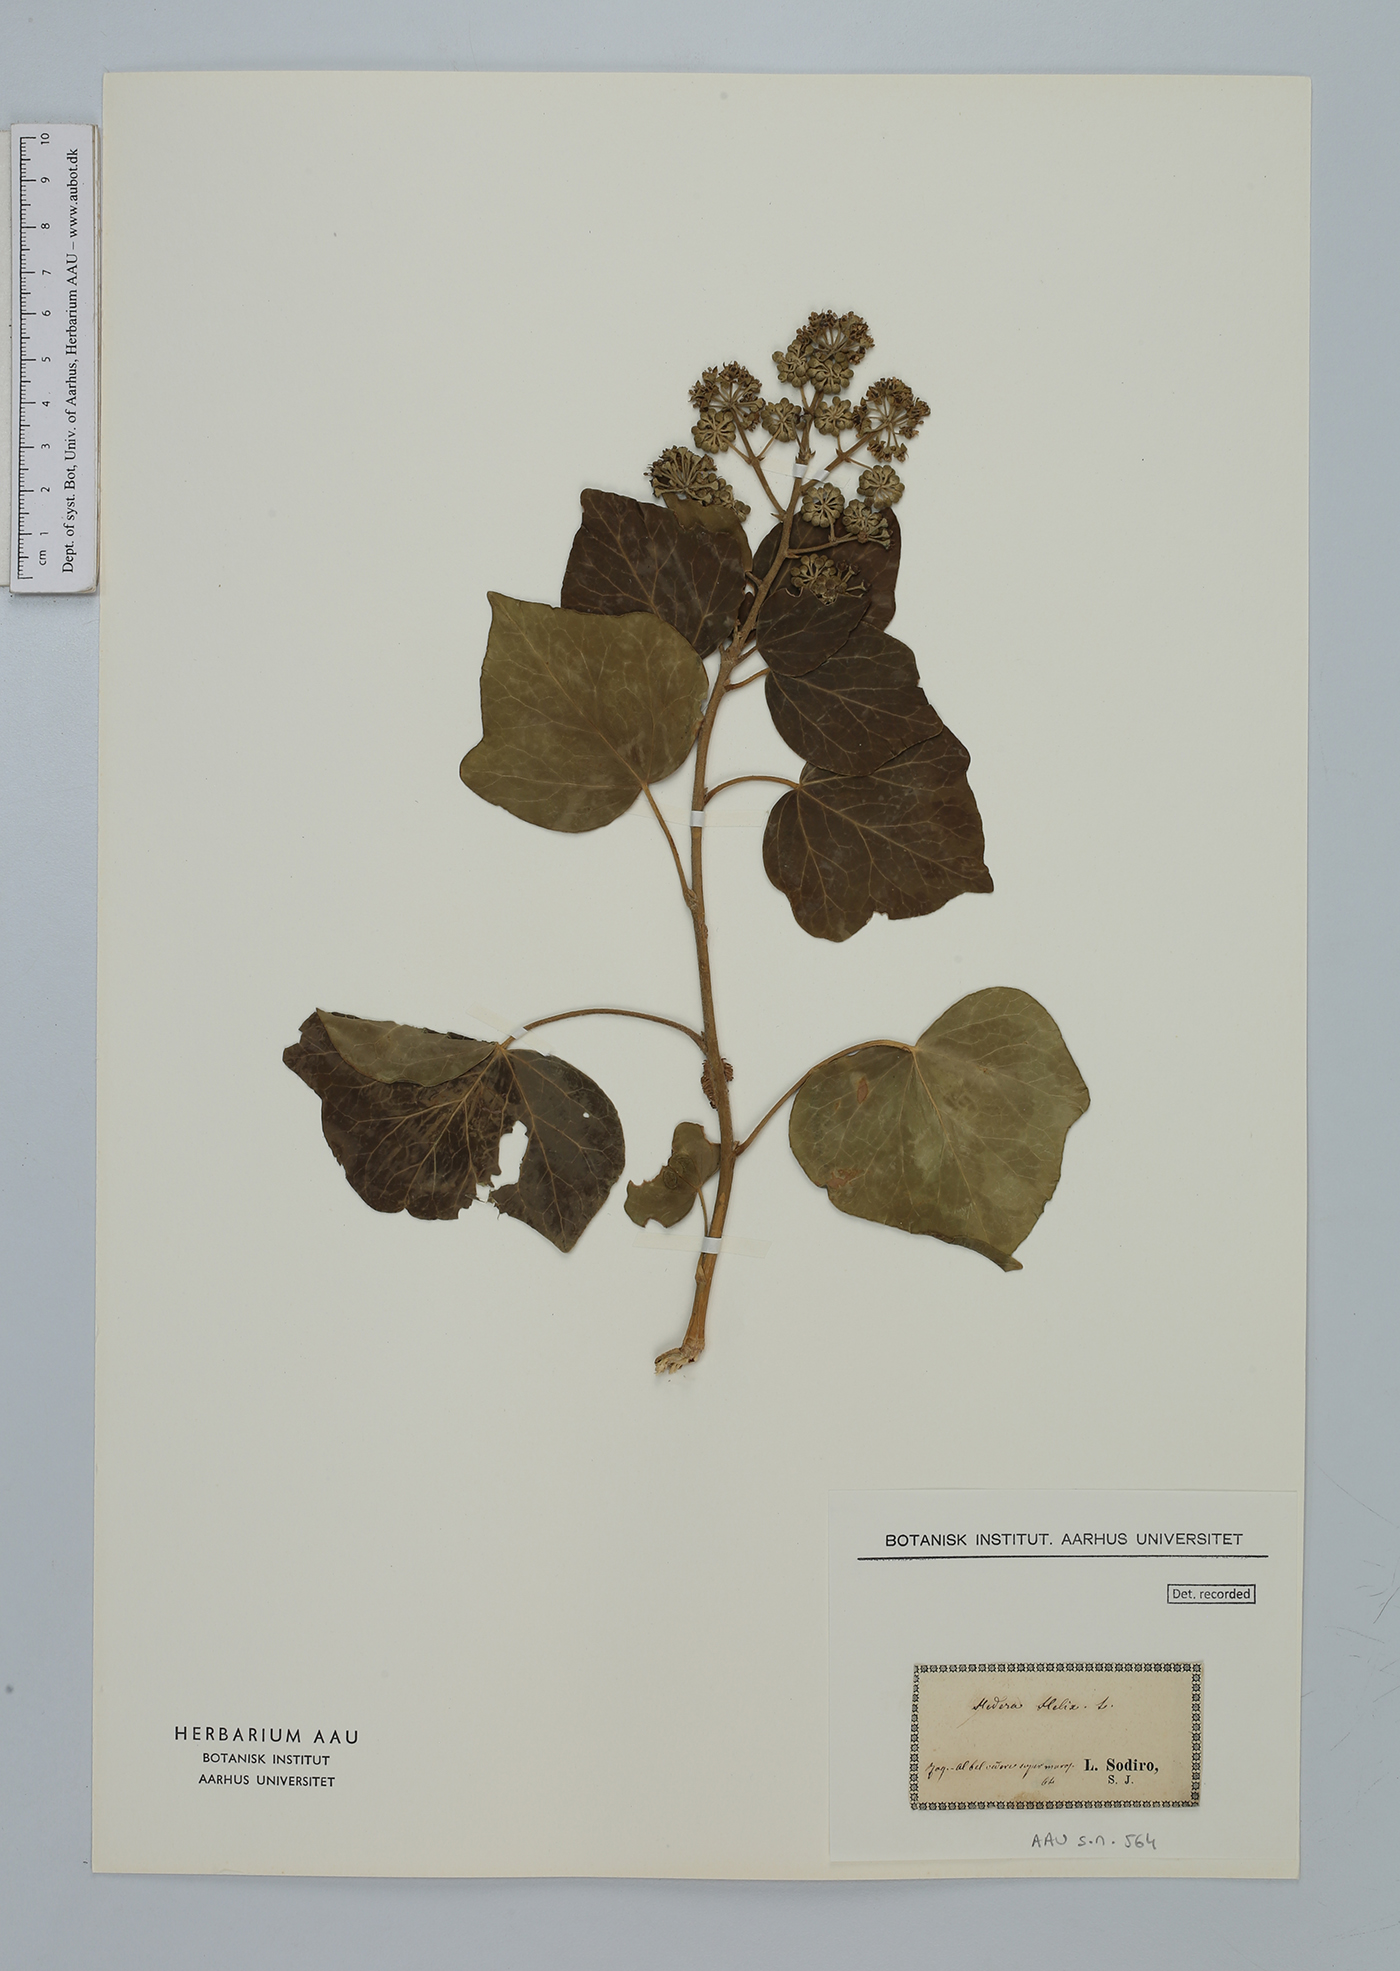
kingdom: Plantae
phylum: Tracheophyta
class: Magnoliopsida
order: Apiales
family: Araliaceae
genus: Hedera
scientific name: Hedera helix
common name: Ivy
